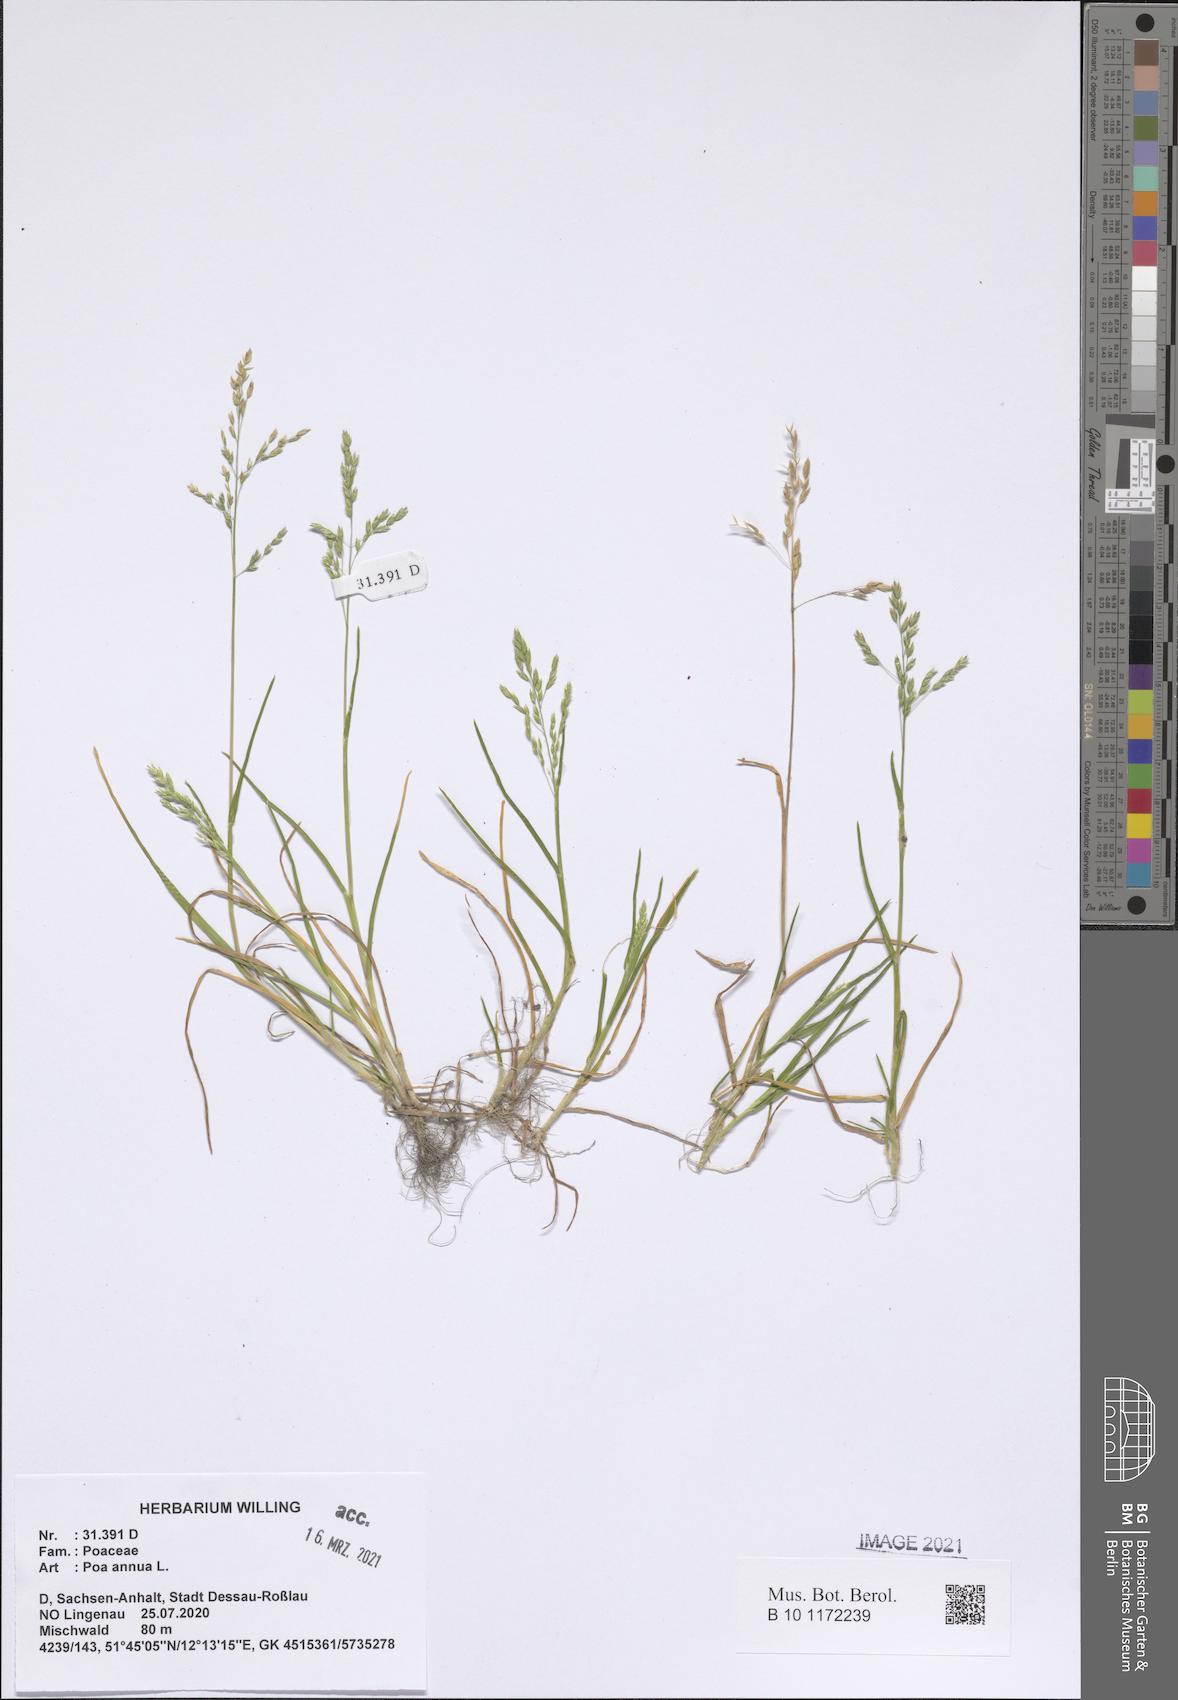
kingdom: Plantae
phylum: Tracheophyta
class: Liliopsida
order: Poales
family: Poaceae
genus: Poa
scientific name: Poa annua
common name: Annual bluegrass
